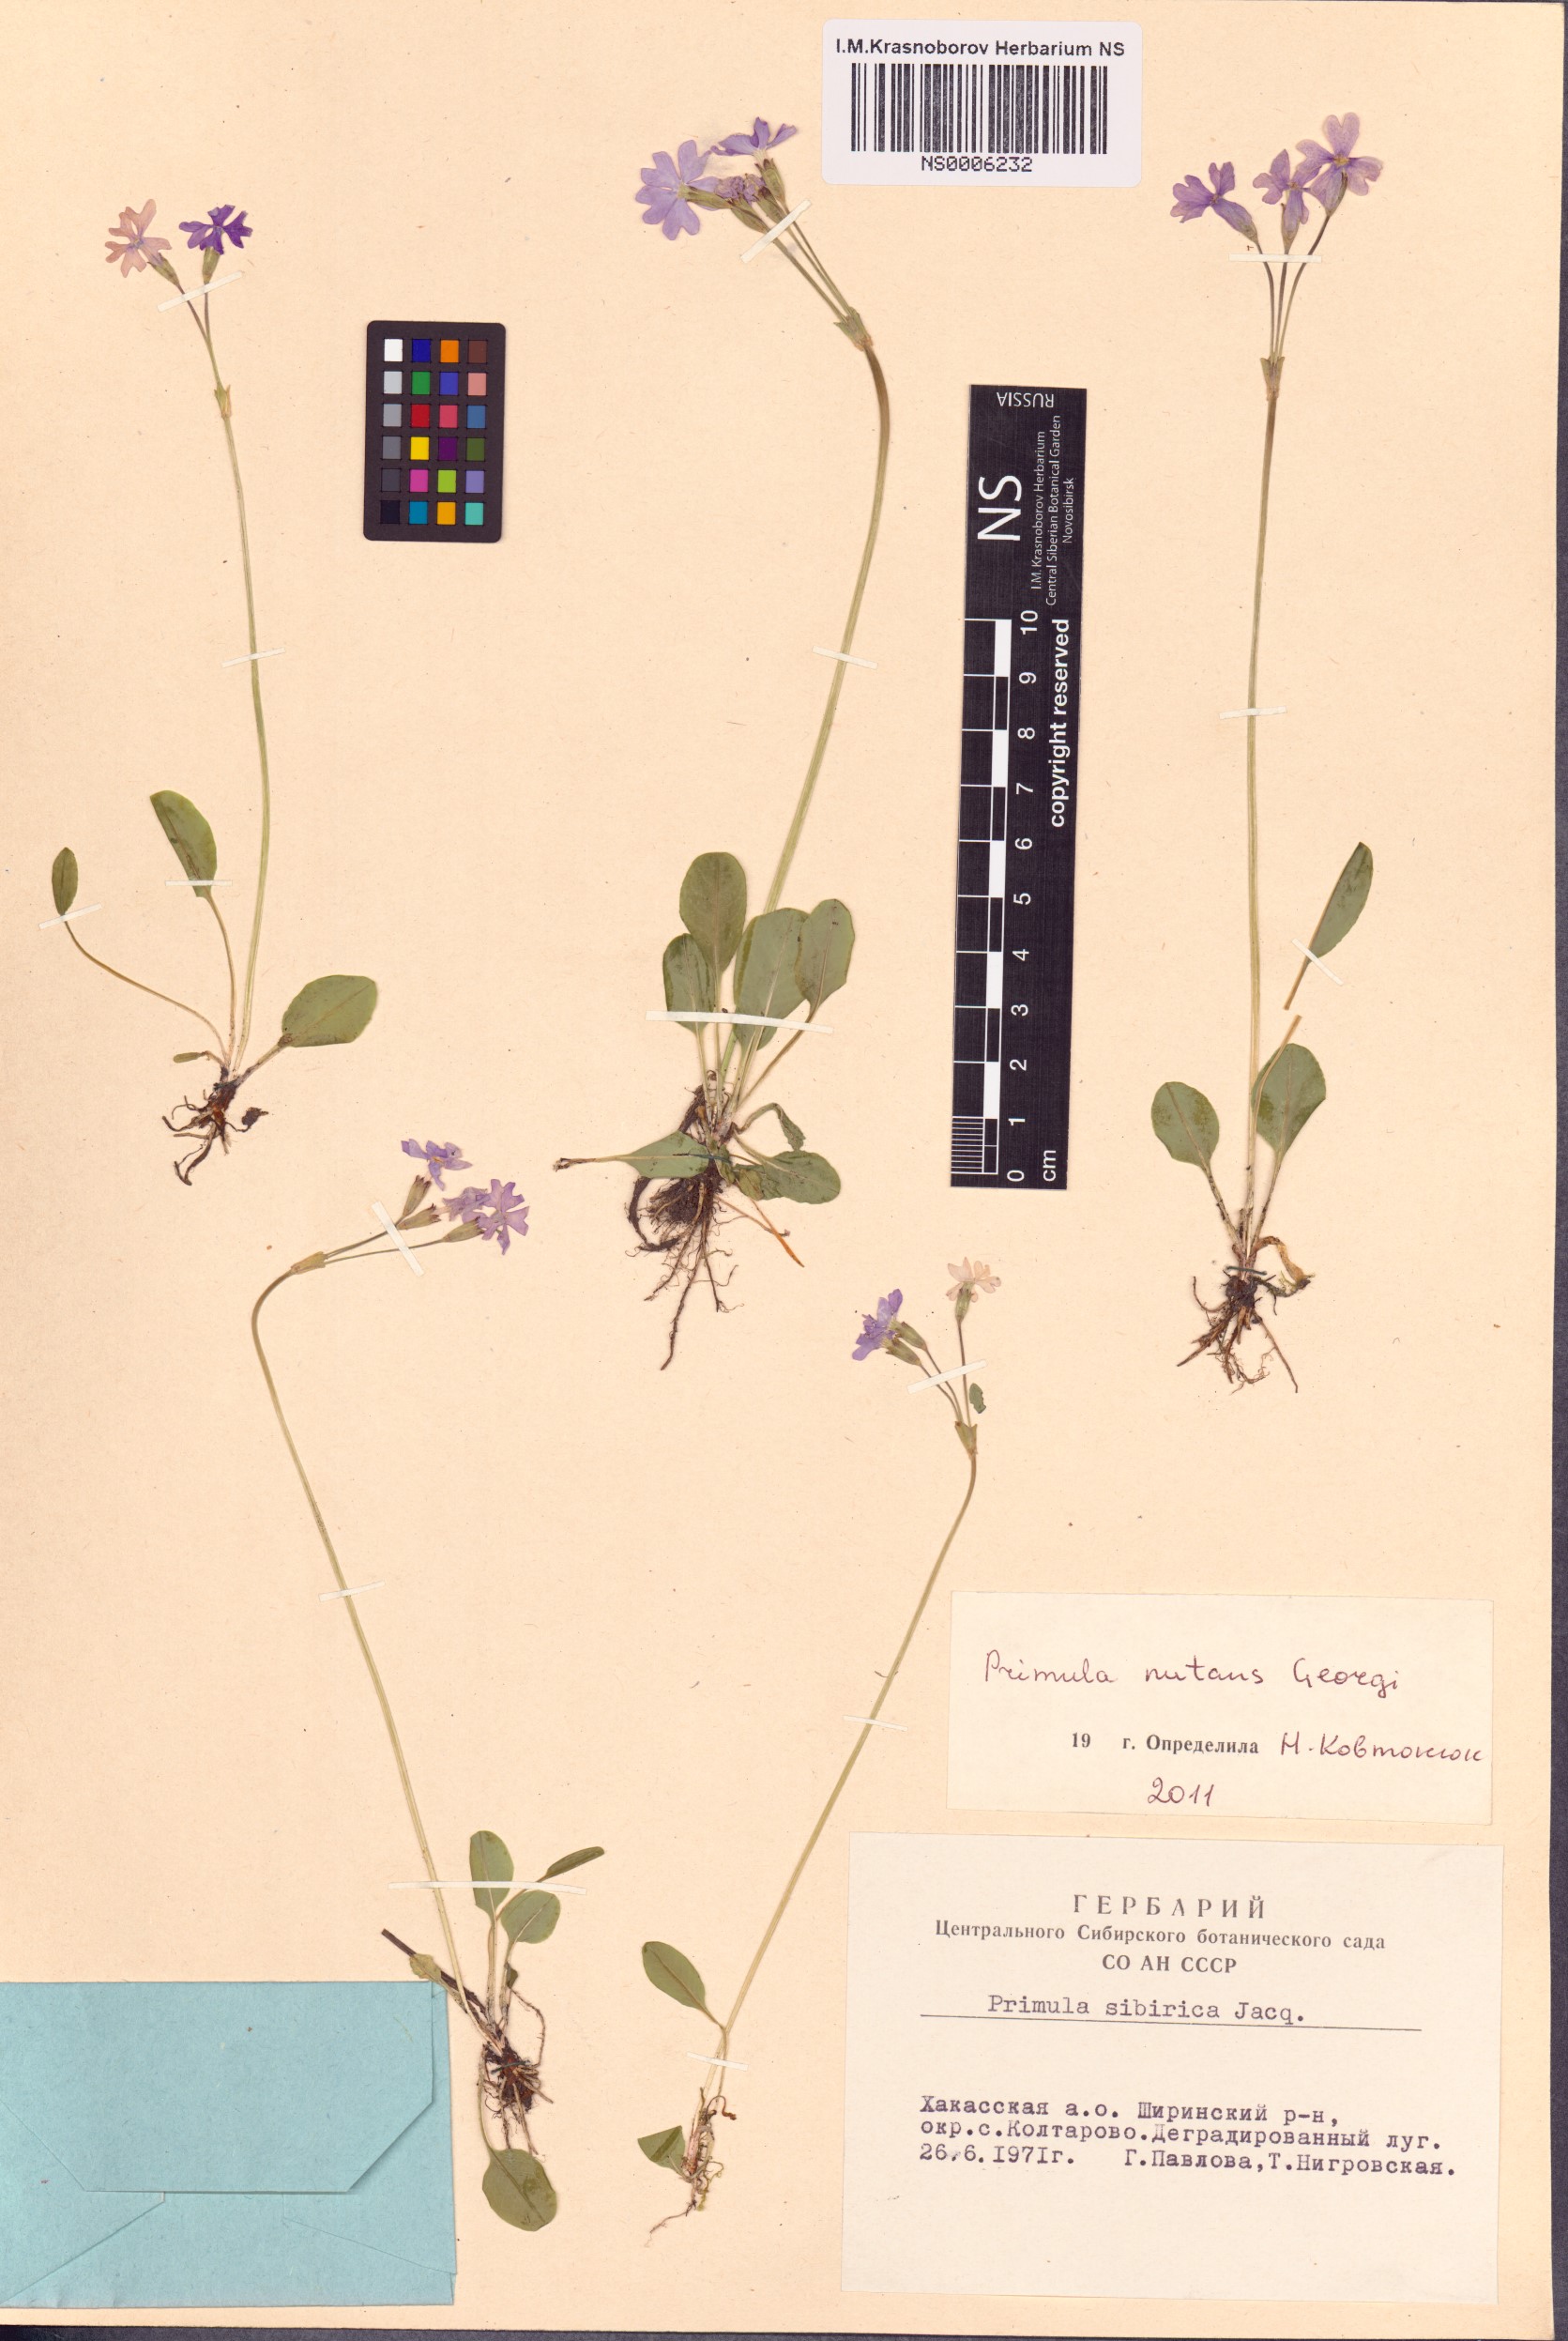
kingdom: Plantae
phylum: Tracheophyta
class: Magnoliopsida
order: Ericales
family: Primulaceae
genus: Primula
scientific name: Primula nutans
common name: Siberian primrose
